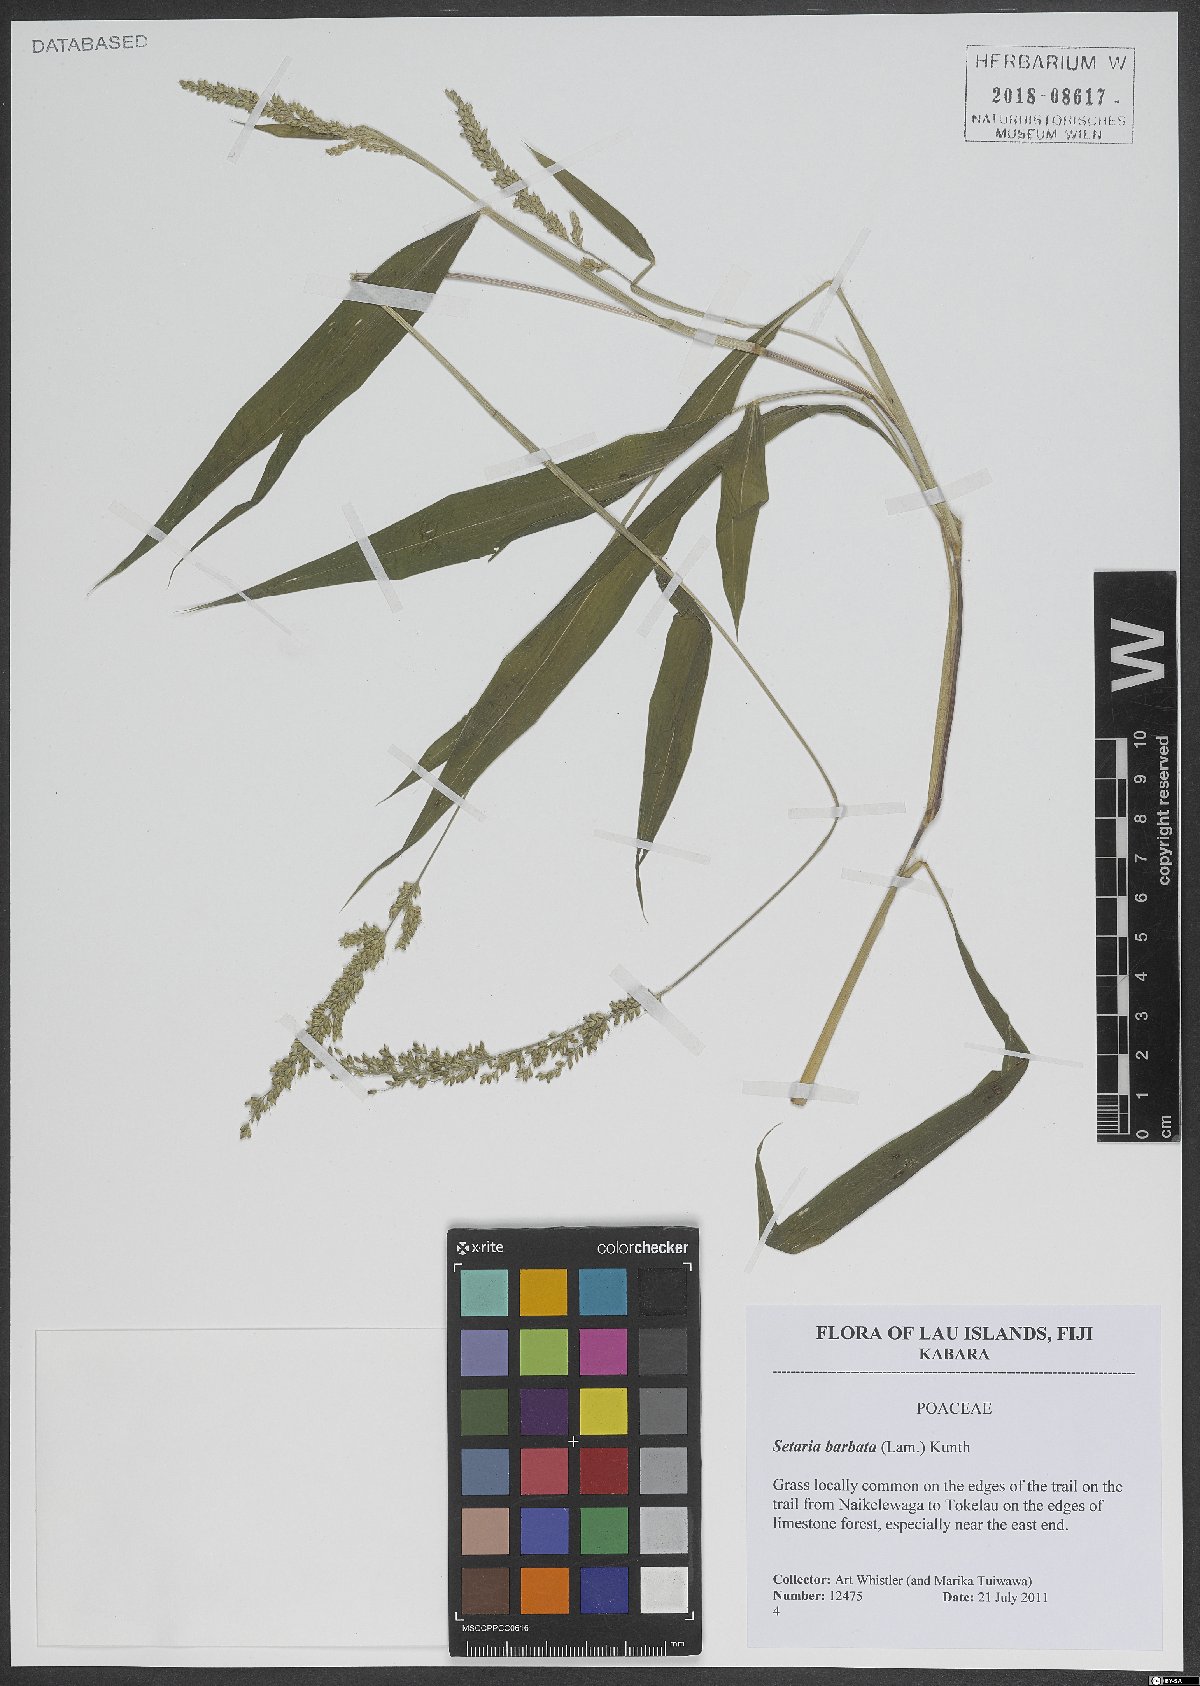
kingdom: Plantae
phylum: Tracheophyta
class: Liliopsida
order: Poales
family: Poaceae
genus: Setaria
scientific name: Setaria barbata
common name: East indian bristlegrass
